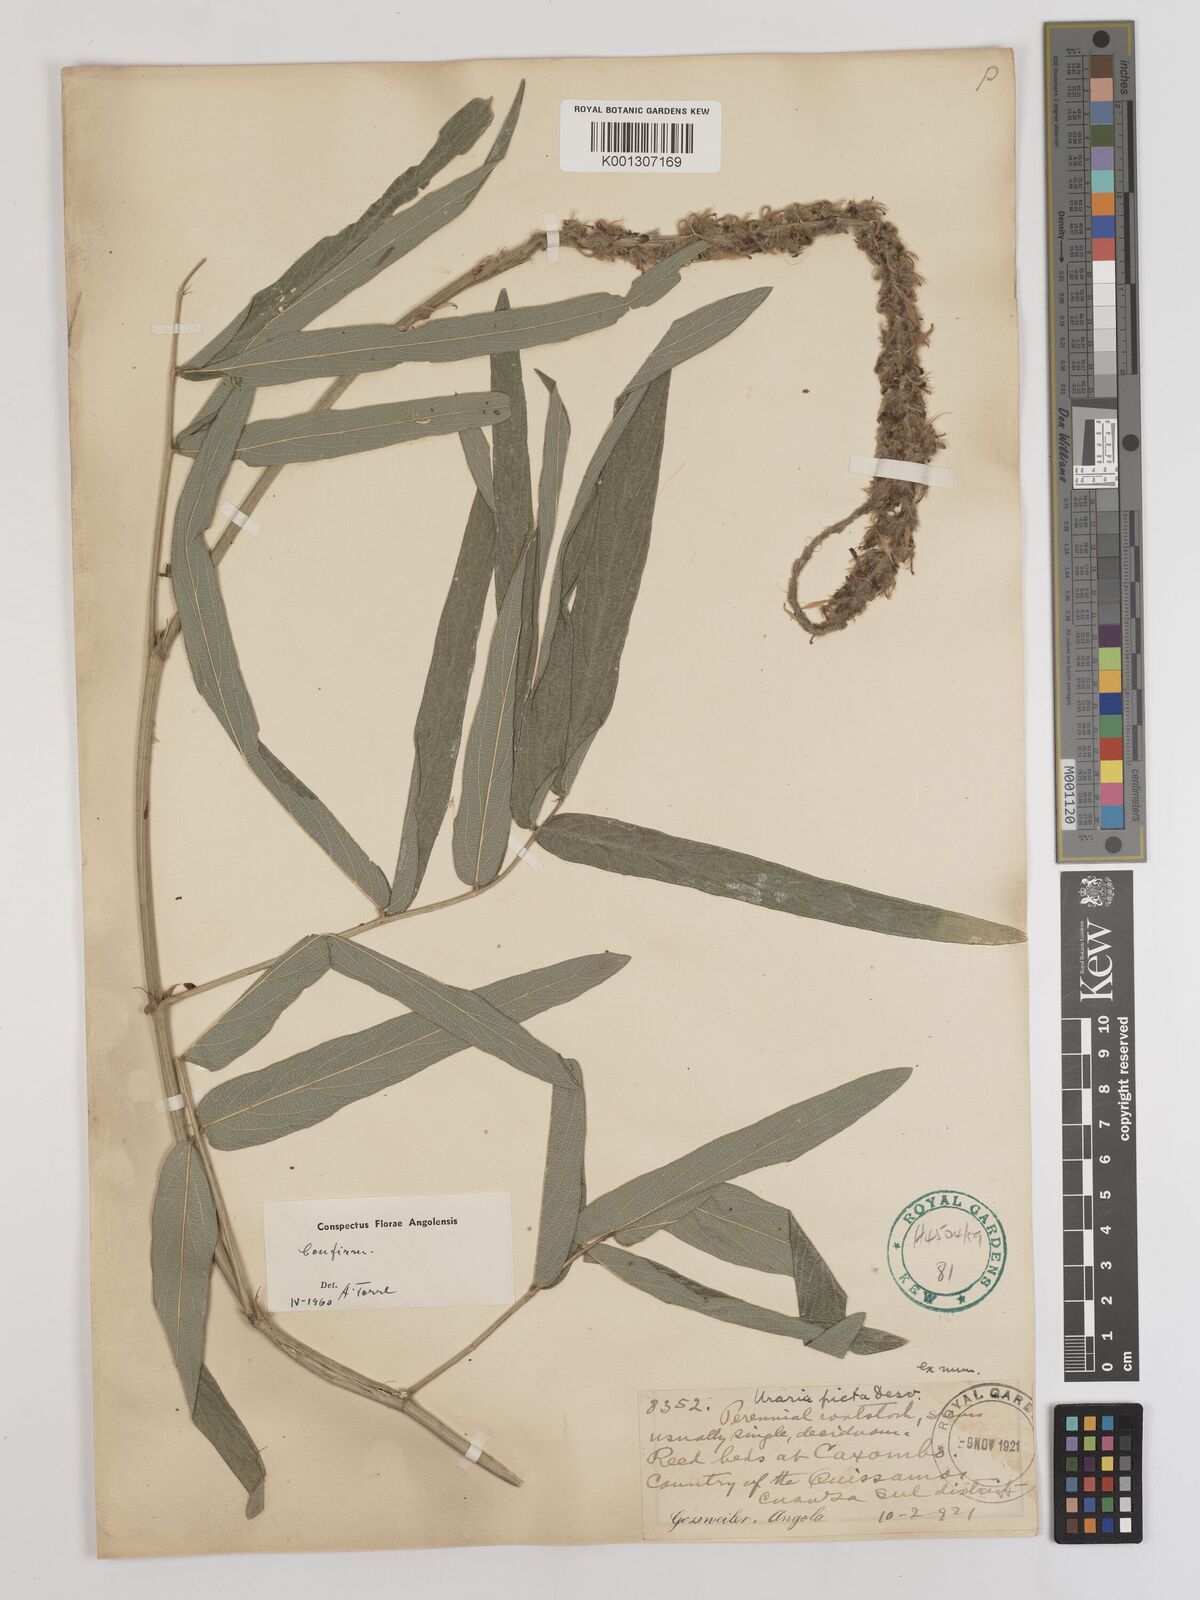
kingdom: Plantae
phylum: Tracheophyta
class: Magnoliopsida
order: Fabales
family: Fabaceae
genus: Uraria
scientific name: Uraria
